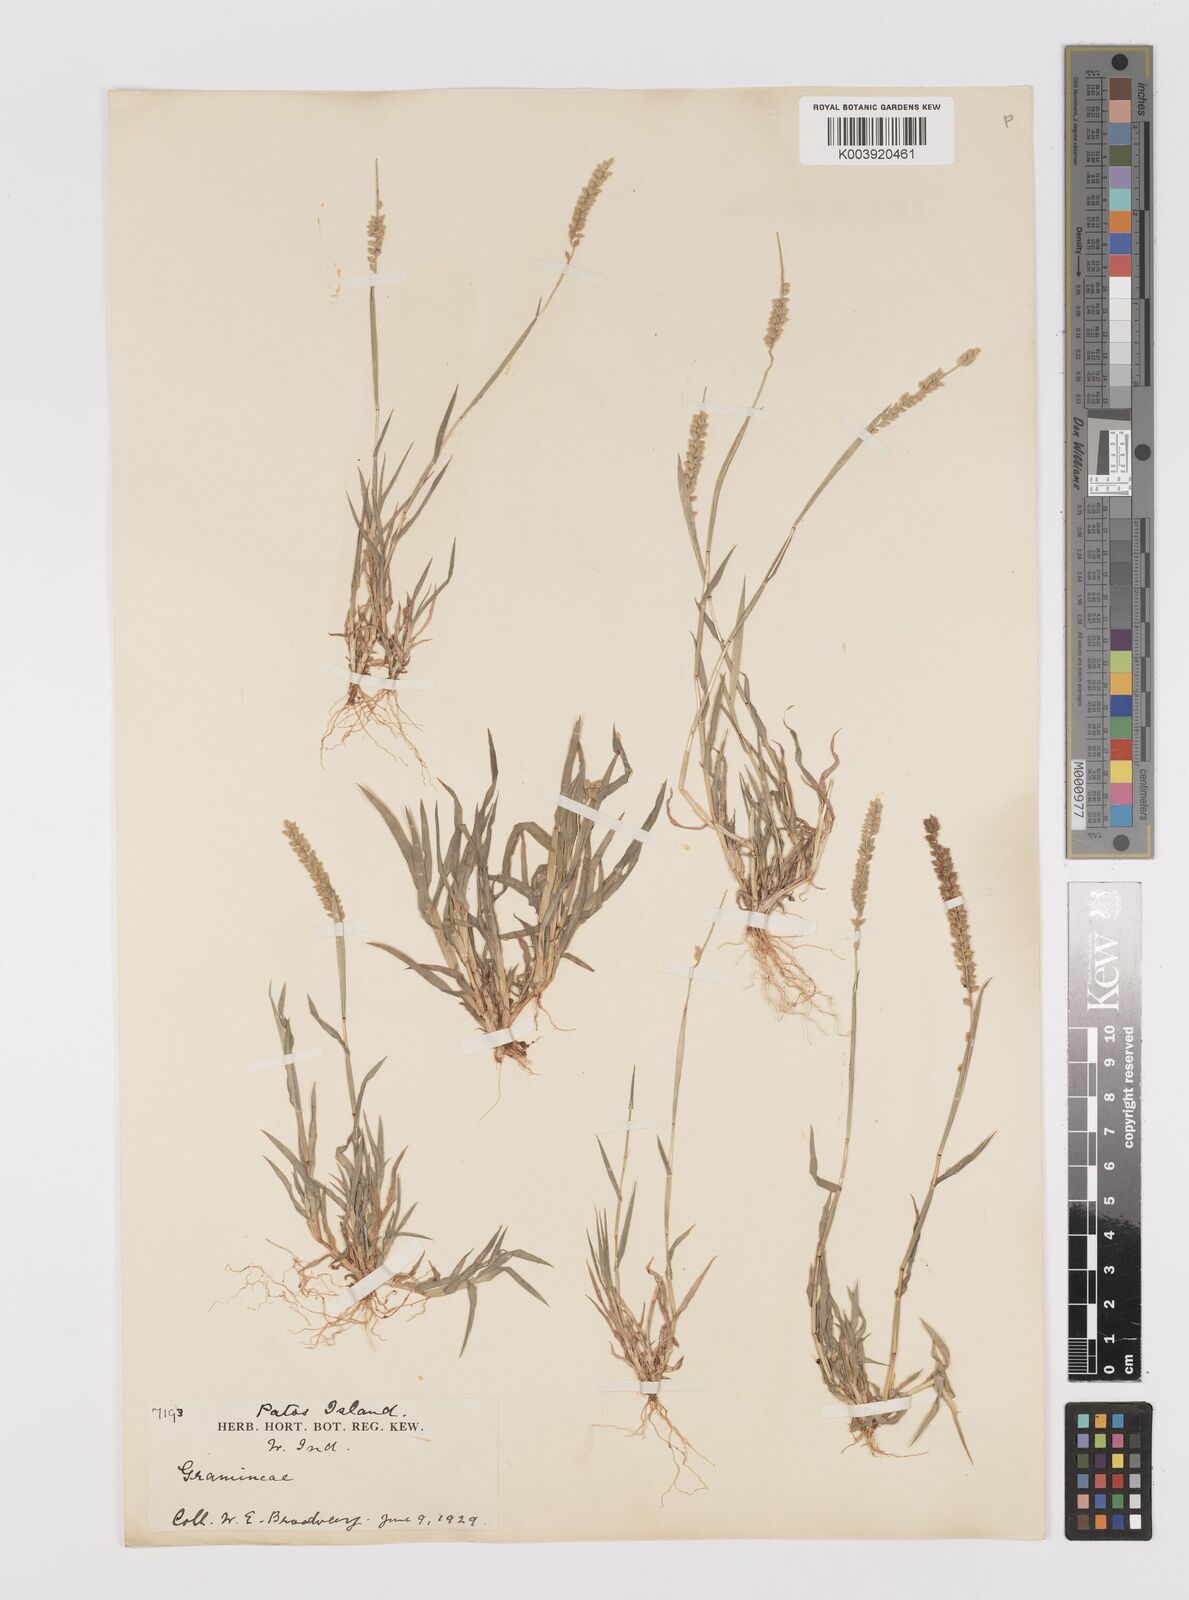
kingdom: Plantae
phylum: Tracheophyta
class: Liliopsida
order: Poales
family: Poaceae
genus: Tragus
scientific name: Tragus berteronianus
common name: African bur-grass
